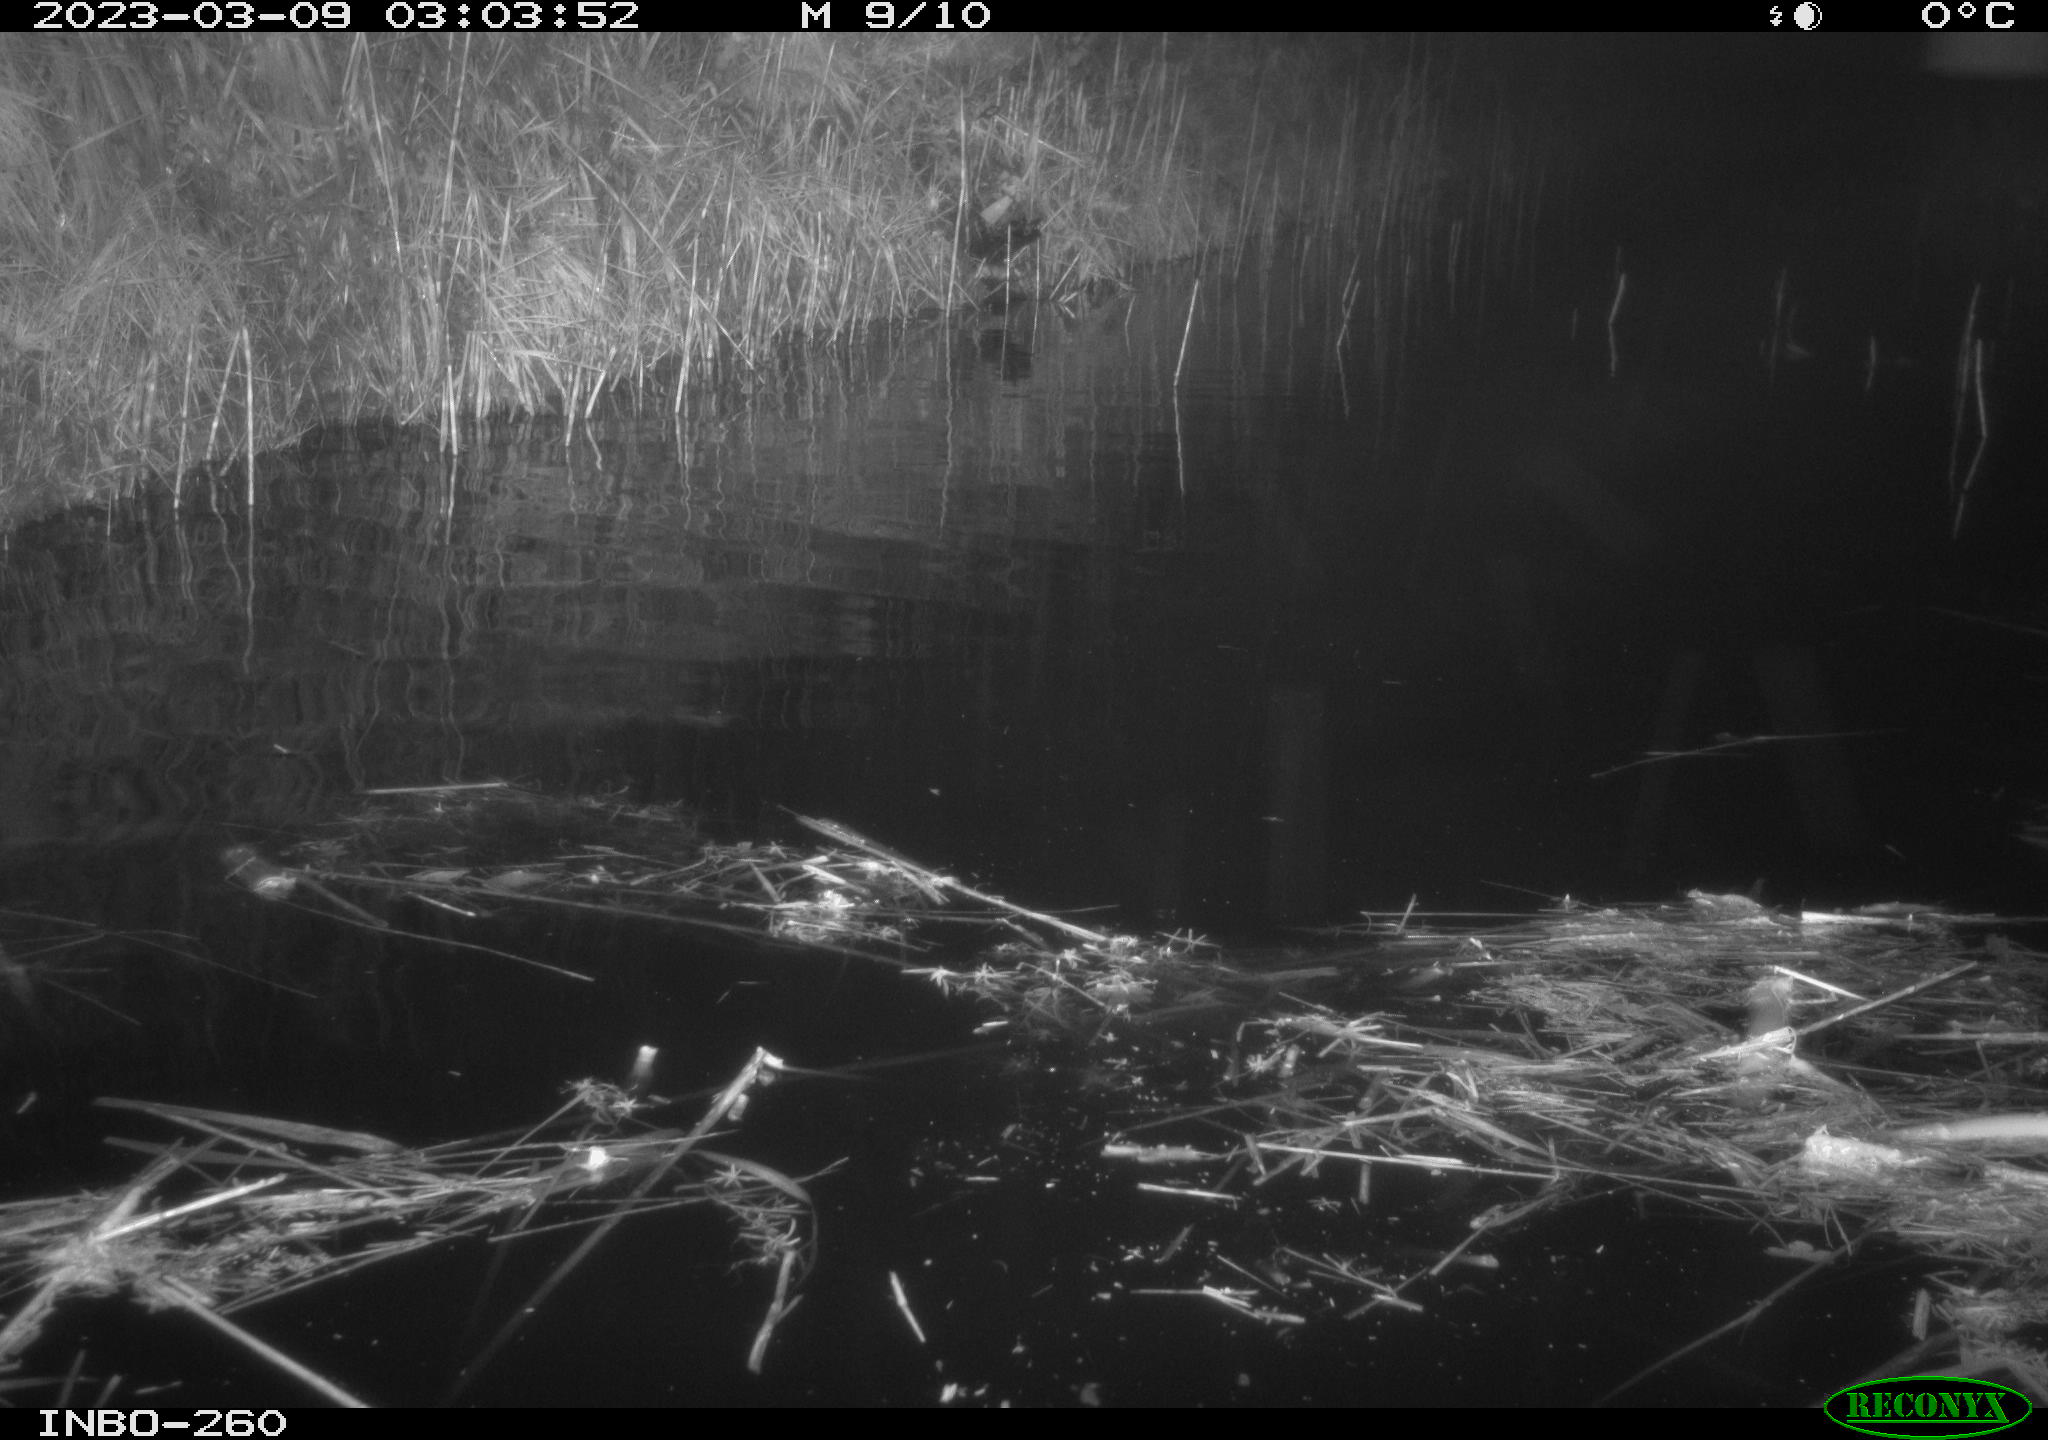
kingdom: Animalia
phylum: Chordata
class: Mammalia
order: Rodentia
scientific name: Rodentia
